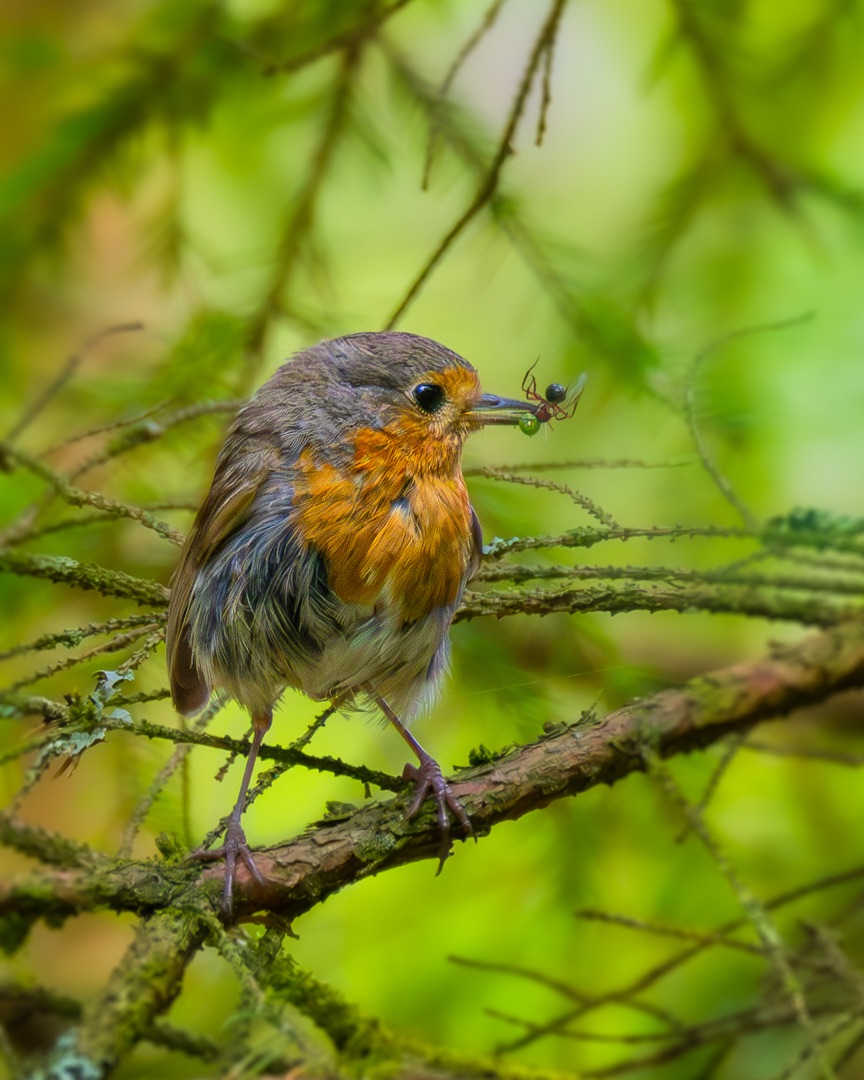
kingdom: Animalia
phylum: Chordata
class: Aves
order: Passeriformes
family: Muscicapidae
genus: Erithacus
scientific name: Erithacus rubecula
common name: Rødhals/rødkælk
